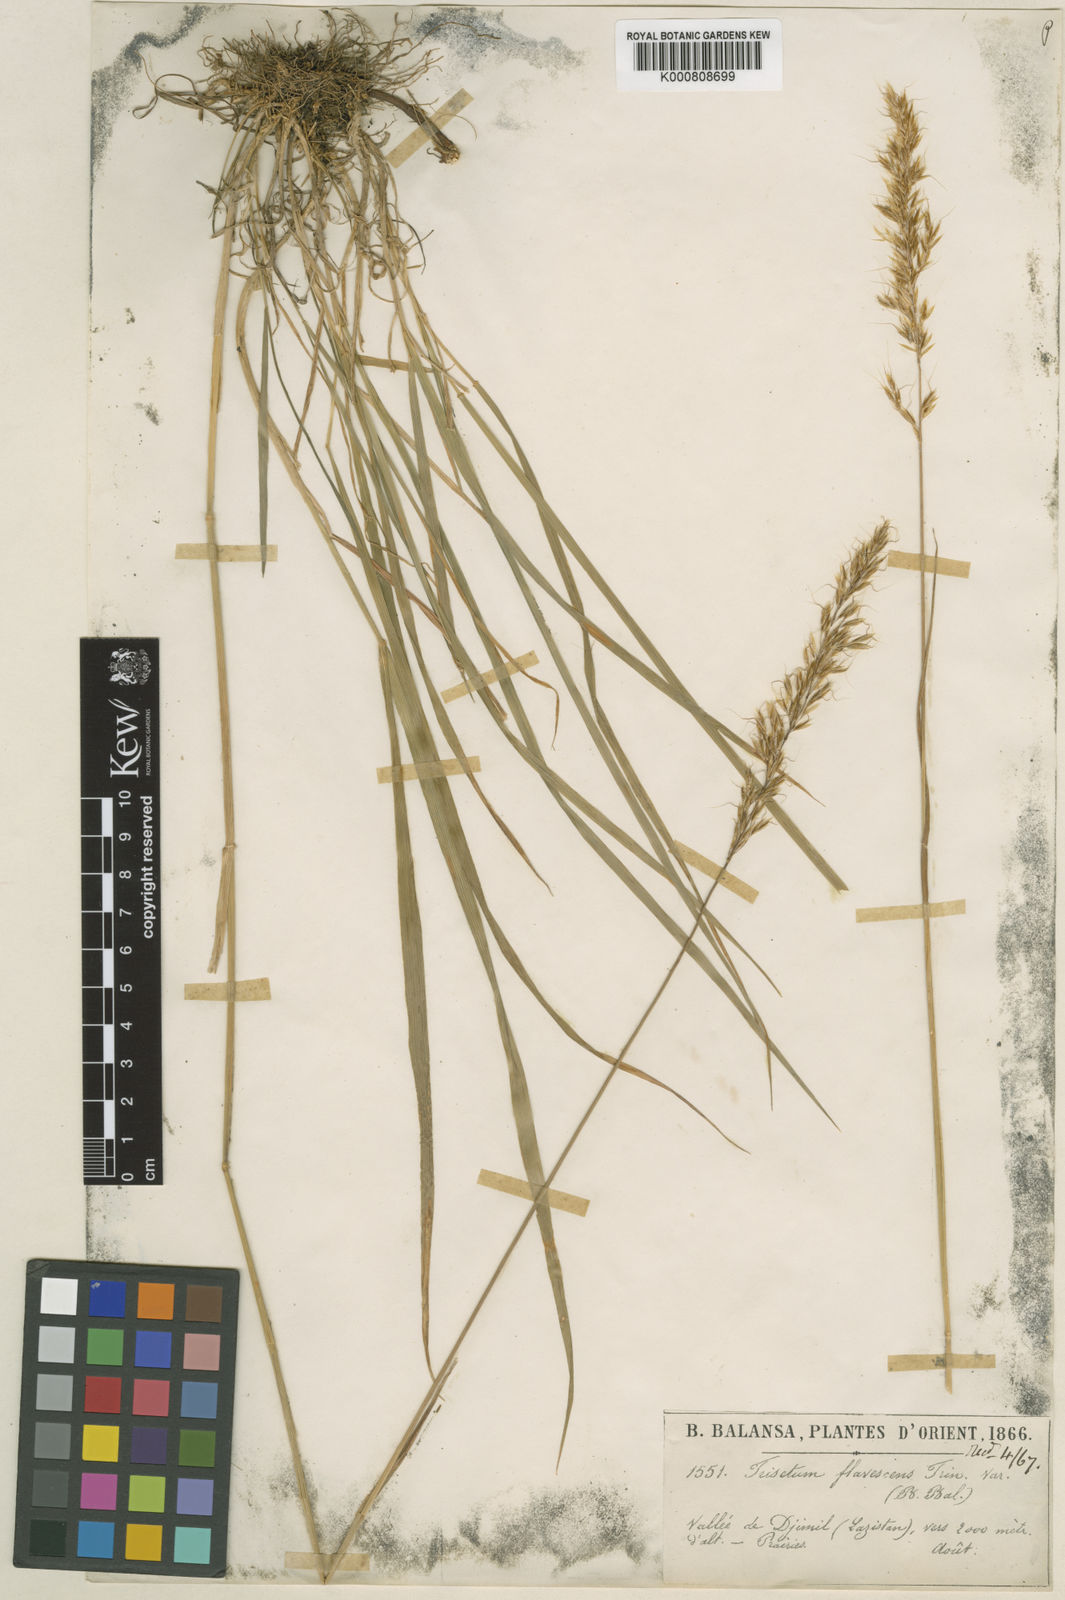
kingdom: Plantae
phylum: Tracheophyta
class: Liliopsida
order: Poales
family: Poaceae
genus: Sibirotrisetum
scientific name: Sibirotrisetum turcicum
